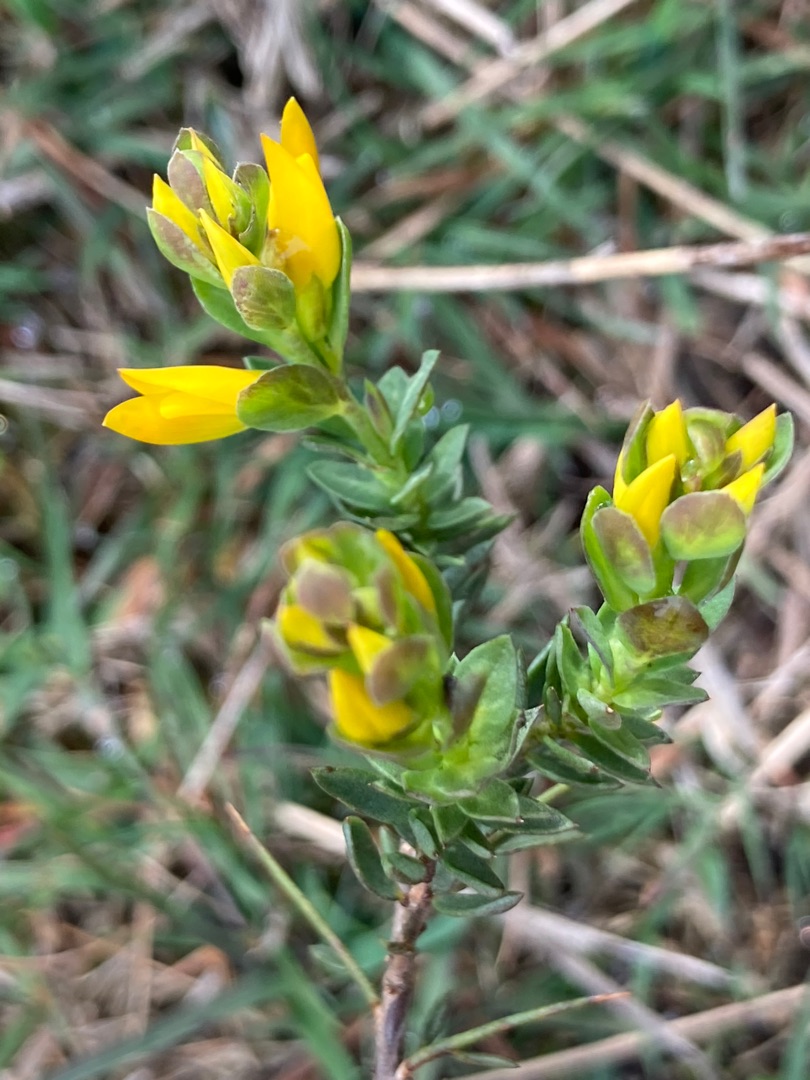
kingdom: Plantae
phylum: Tracheophyta
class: Magnoliopsida
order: Fabales
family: Fabaceae
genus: Genista
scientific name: Genista anglica
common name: Engelsk visse
